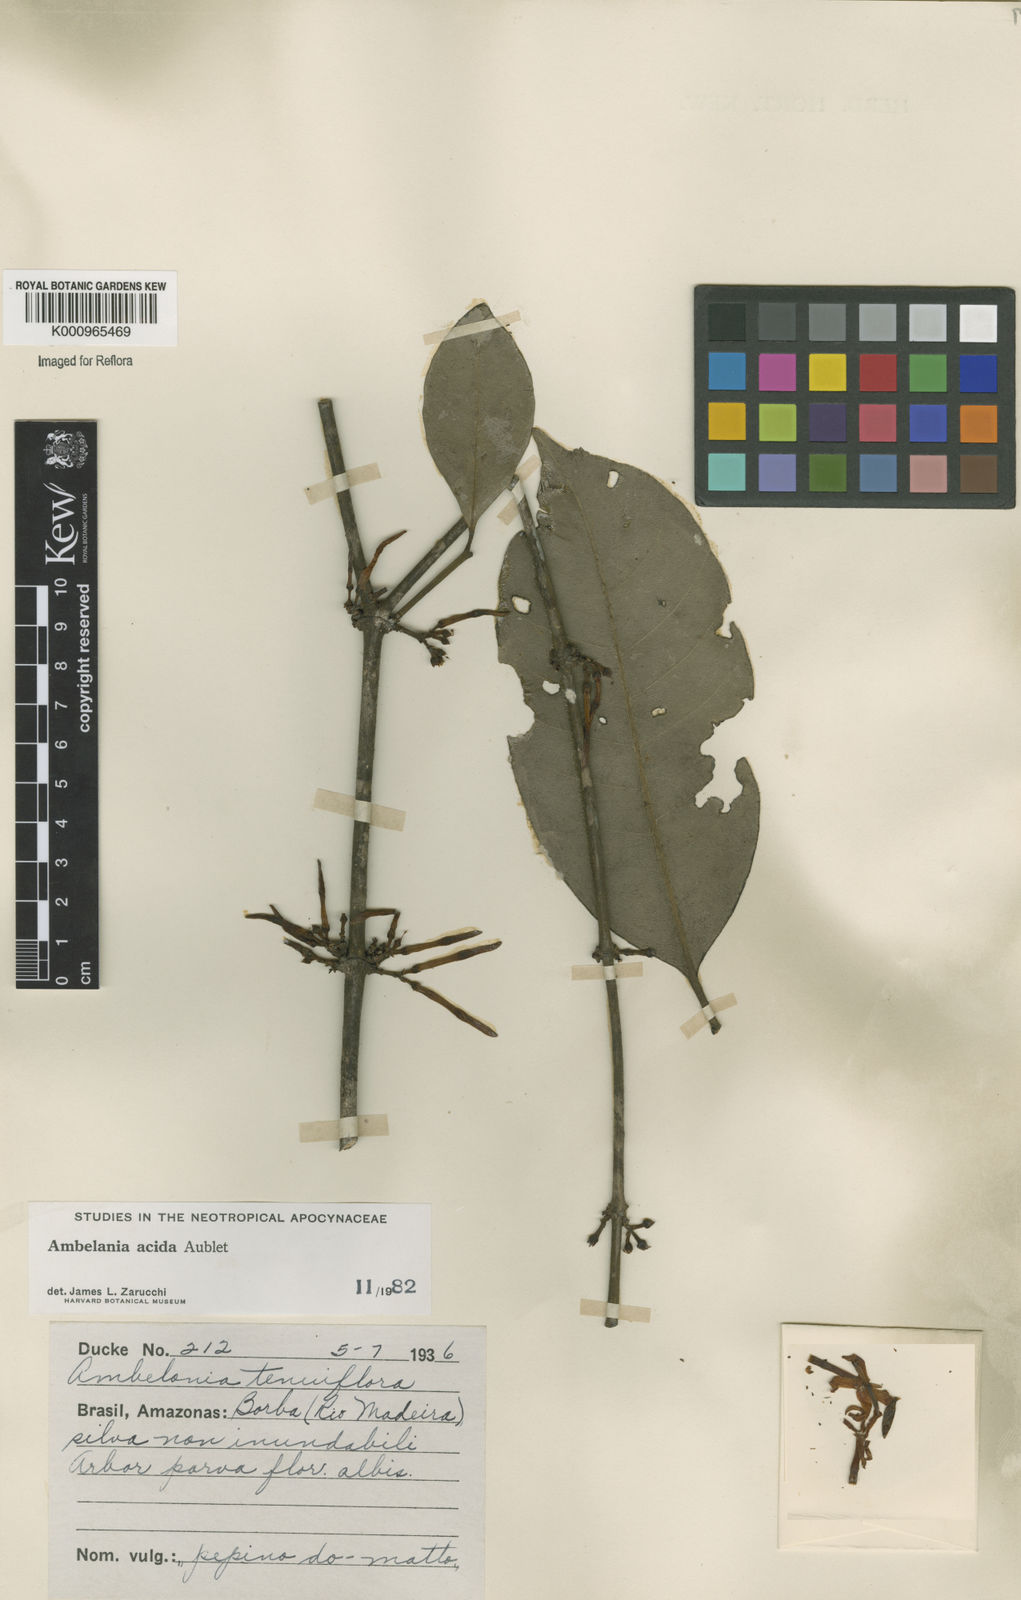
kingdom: Plantae
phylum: Tracheophyta
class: Magnoliopsida
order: Gentianales
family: Apocynaceae
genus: Ambelania
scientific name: Ambelania acida
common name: Bagasse
